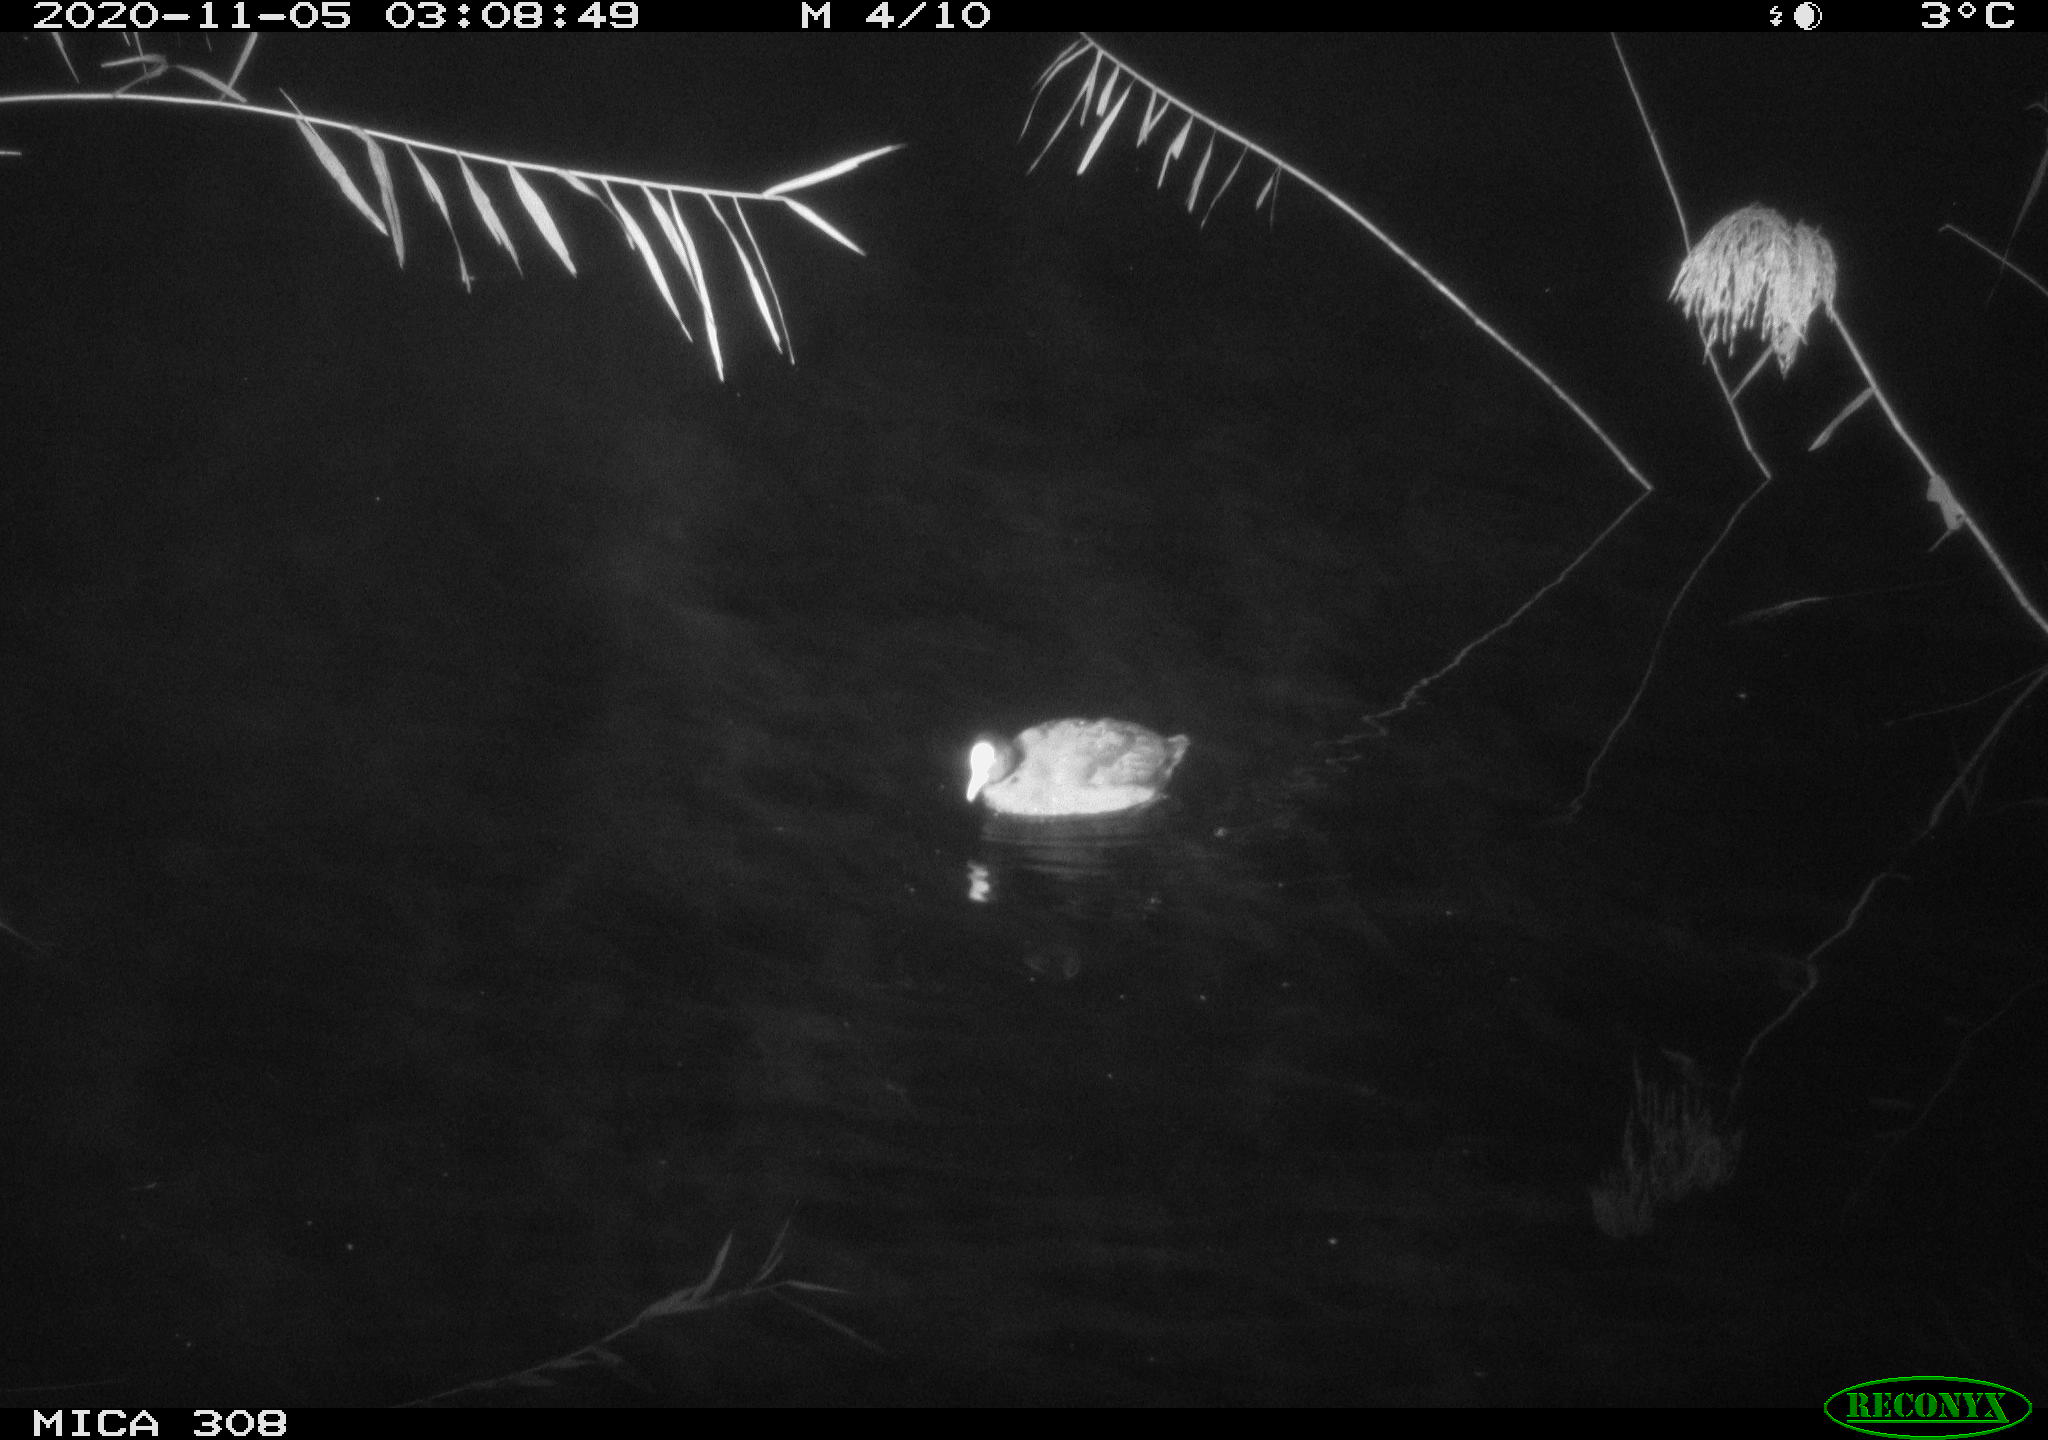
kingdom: Animalia
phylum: Chordata
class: Aves
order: Gruiformes
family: Rallidae
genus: Fulica
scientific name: Fulica atra
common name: Eurasian coot
